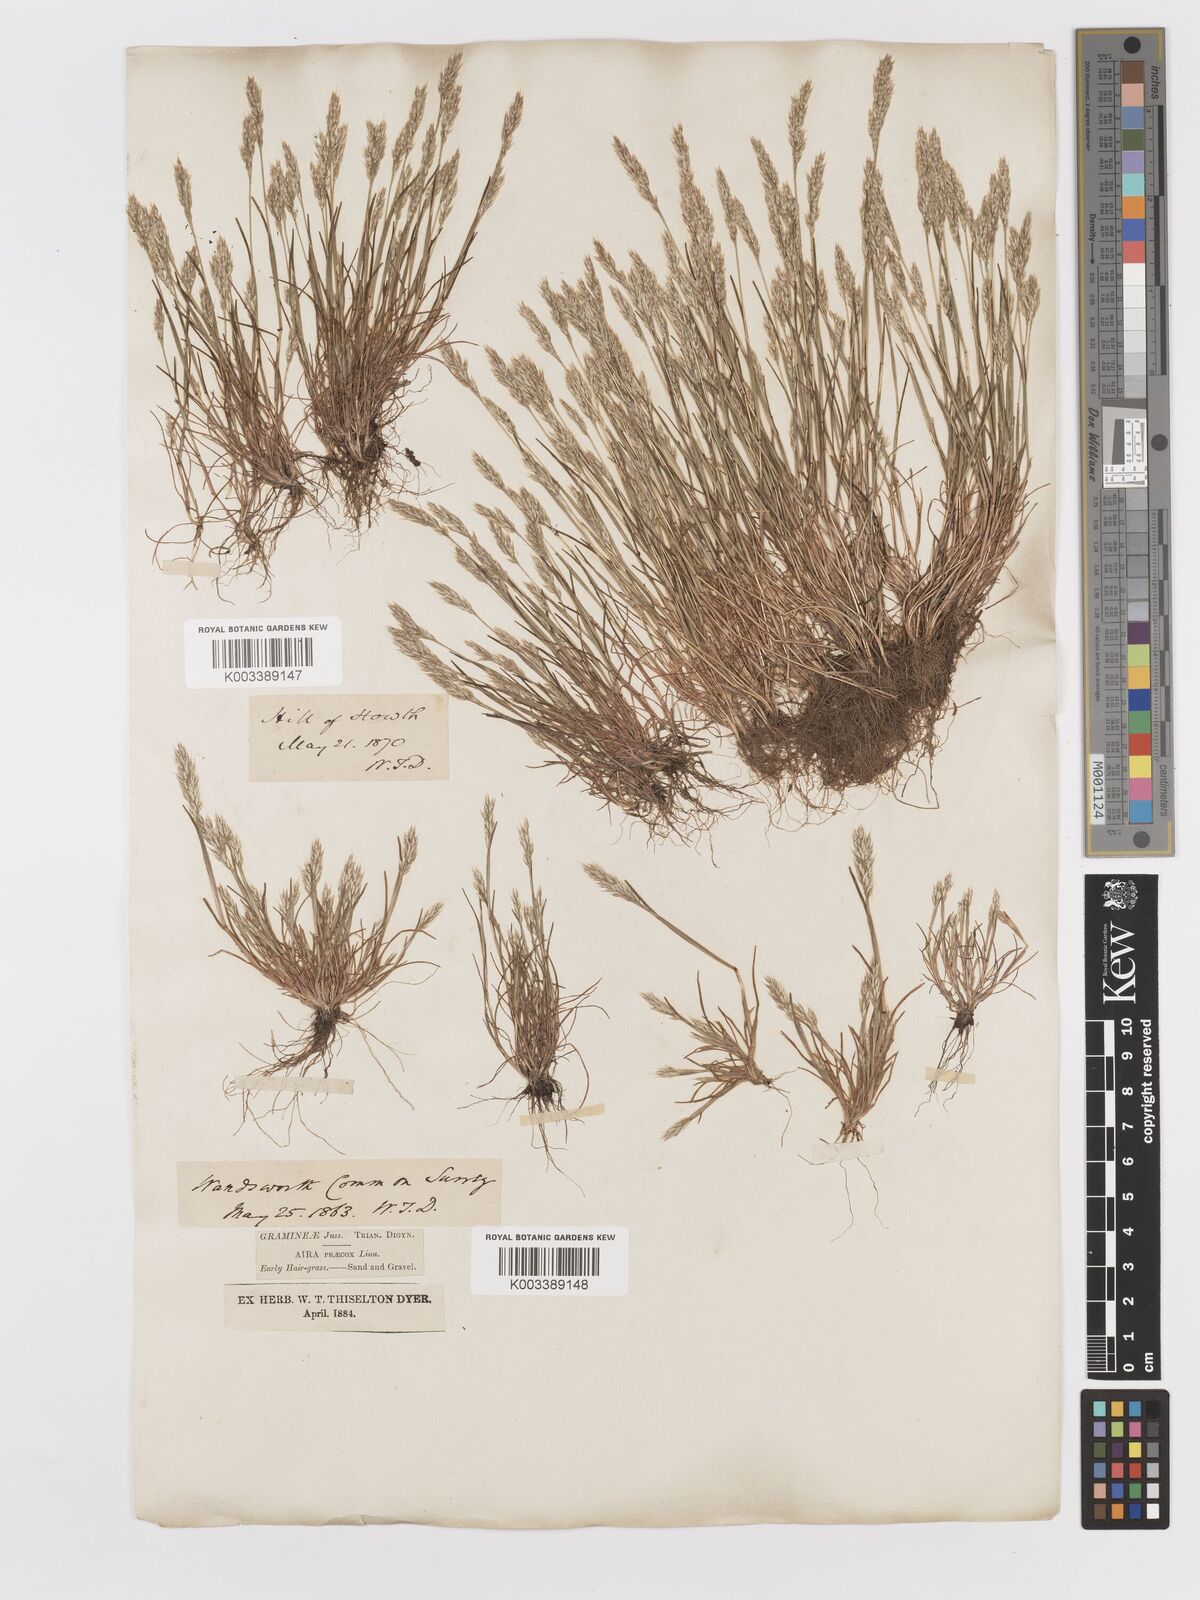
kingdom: Plantae
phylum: Tracheophyta
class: Liliopsida
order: Poales
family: Poaceae
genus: Aira
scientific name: Aira praecox
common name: Early hair-grass
